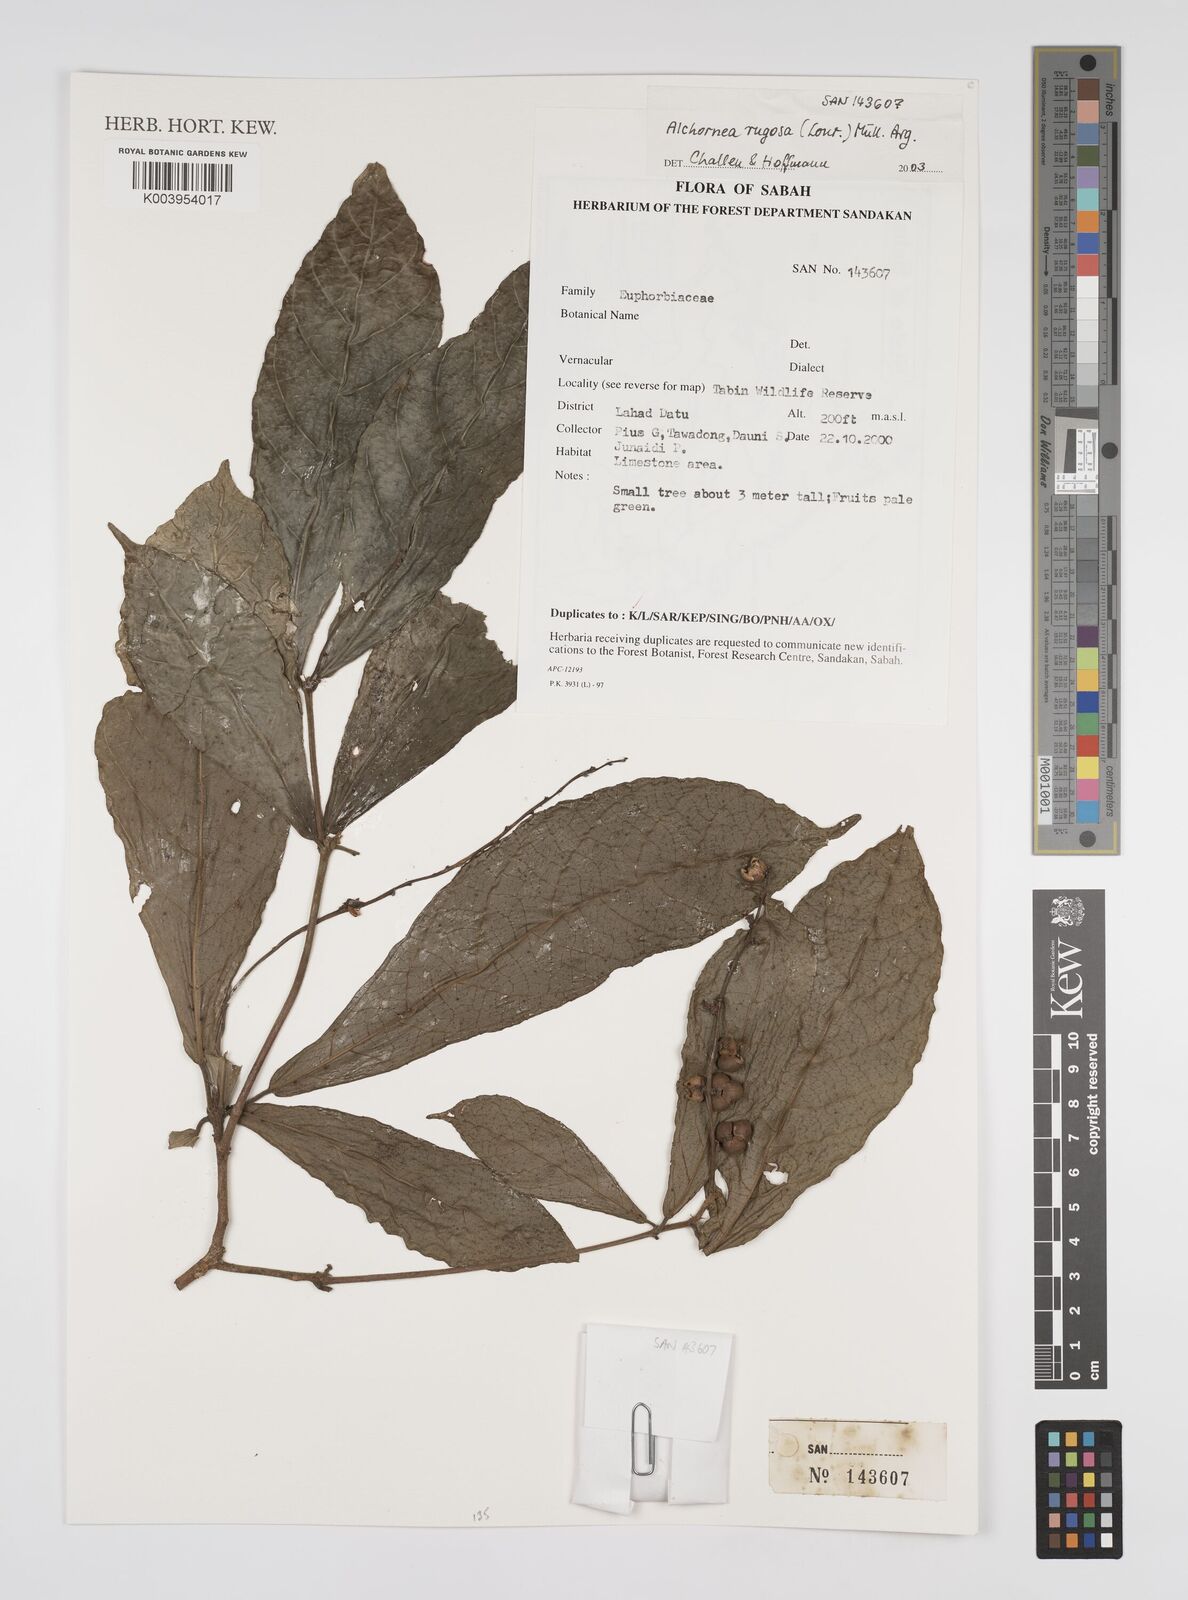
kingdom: Plantae
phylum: Tracheophyta
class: Magnoliopsida
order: Malpighiales
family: Euphorbiaceae
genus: Alchornea
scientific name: Alchornea rugosa
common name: Alchorntree
